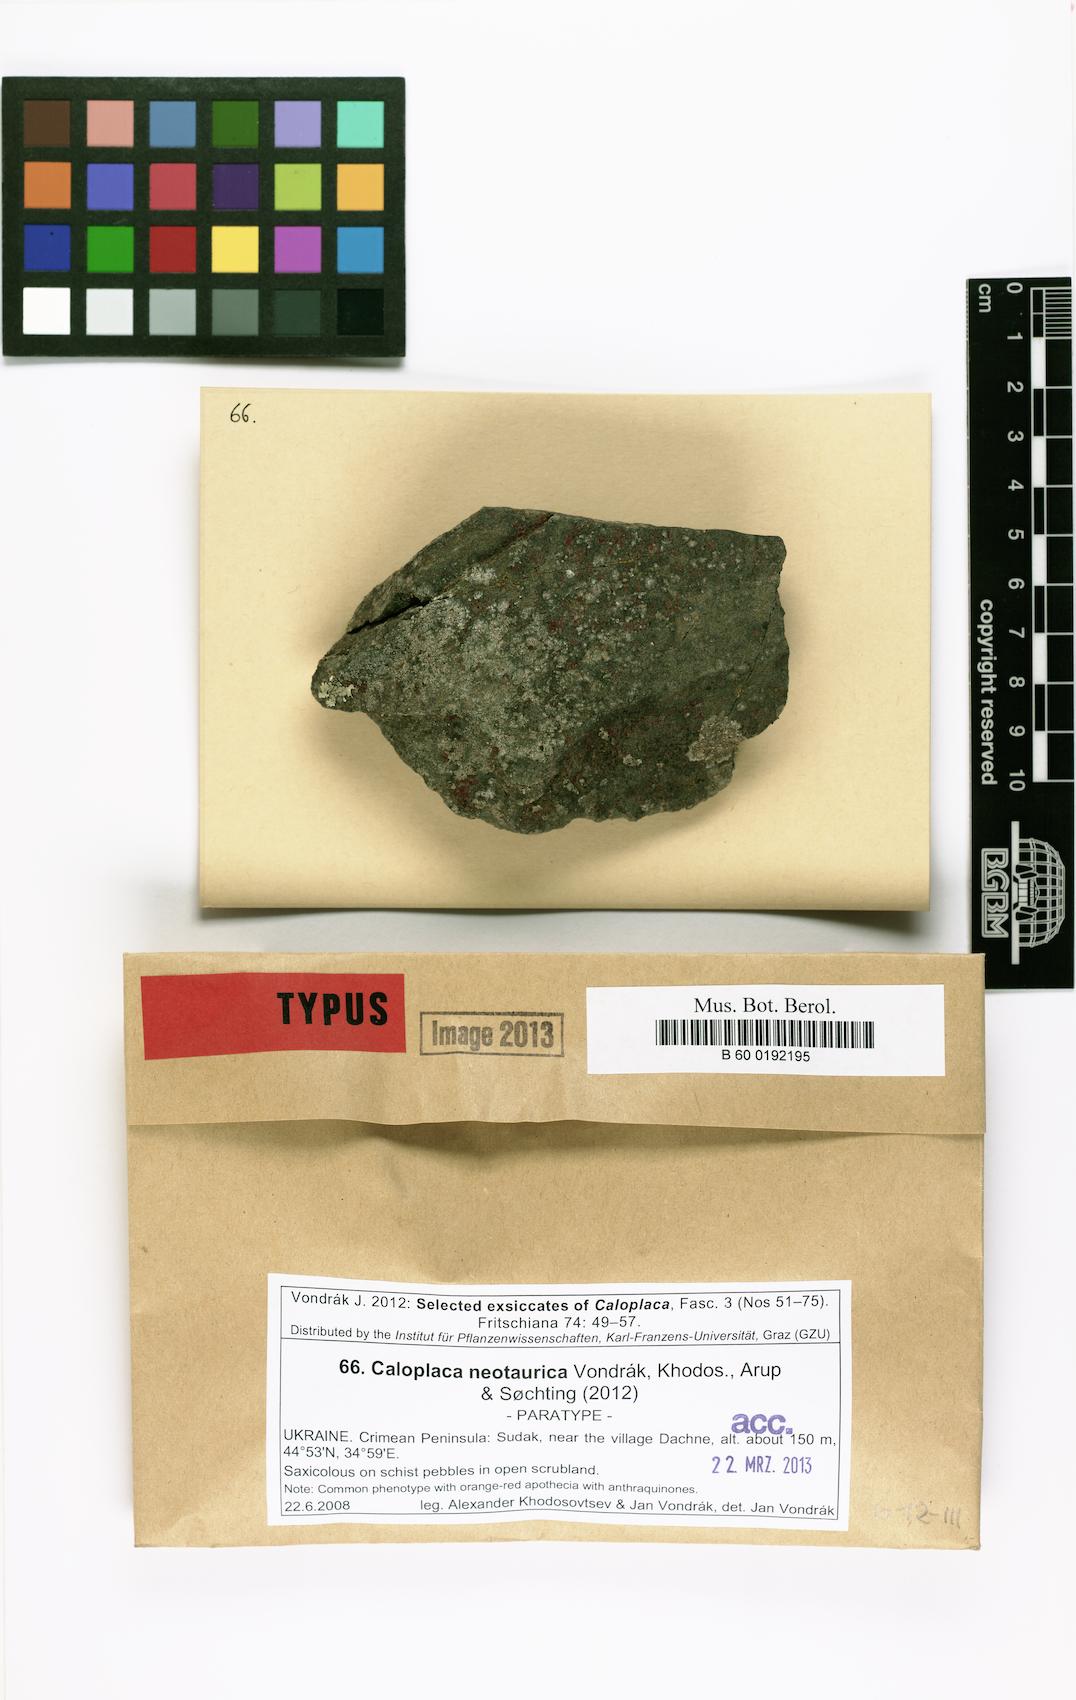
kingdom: Fungi
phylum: Ascomycota
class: Lecanoromycetes
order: Teloschistales
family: Teloschistaceae
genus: Kuettlingeria
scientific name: Kuettlingeria neotaurica
